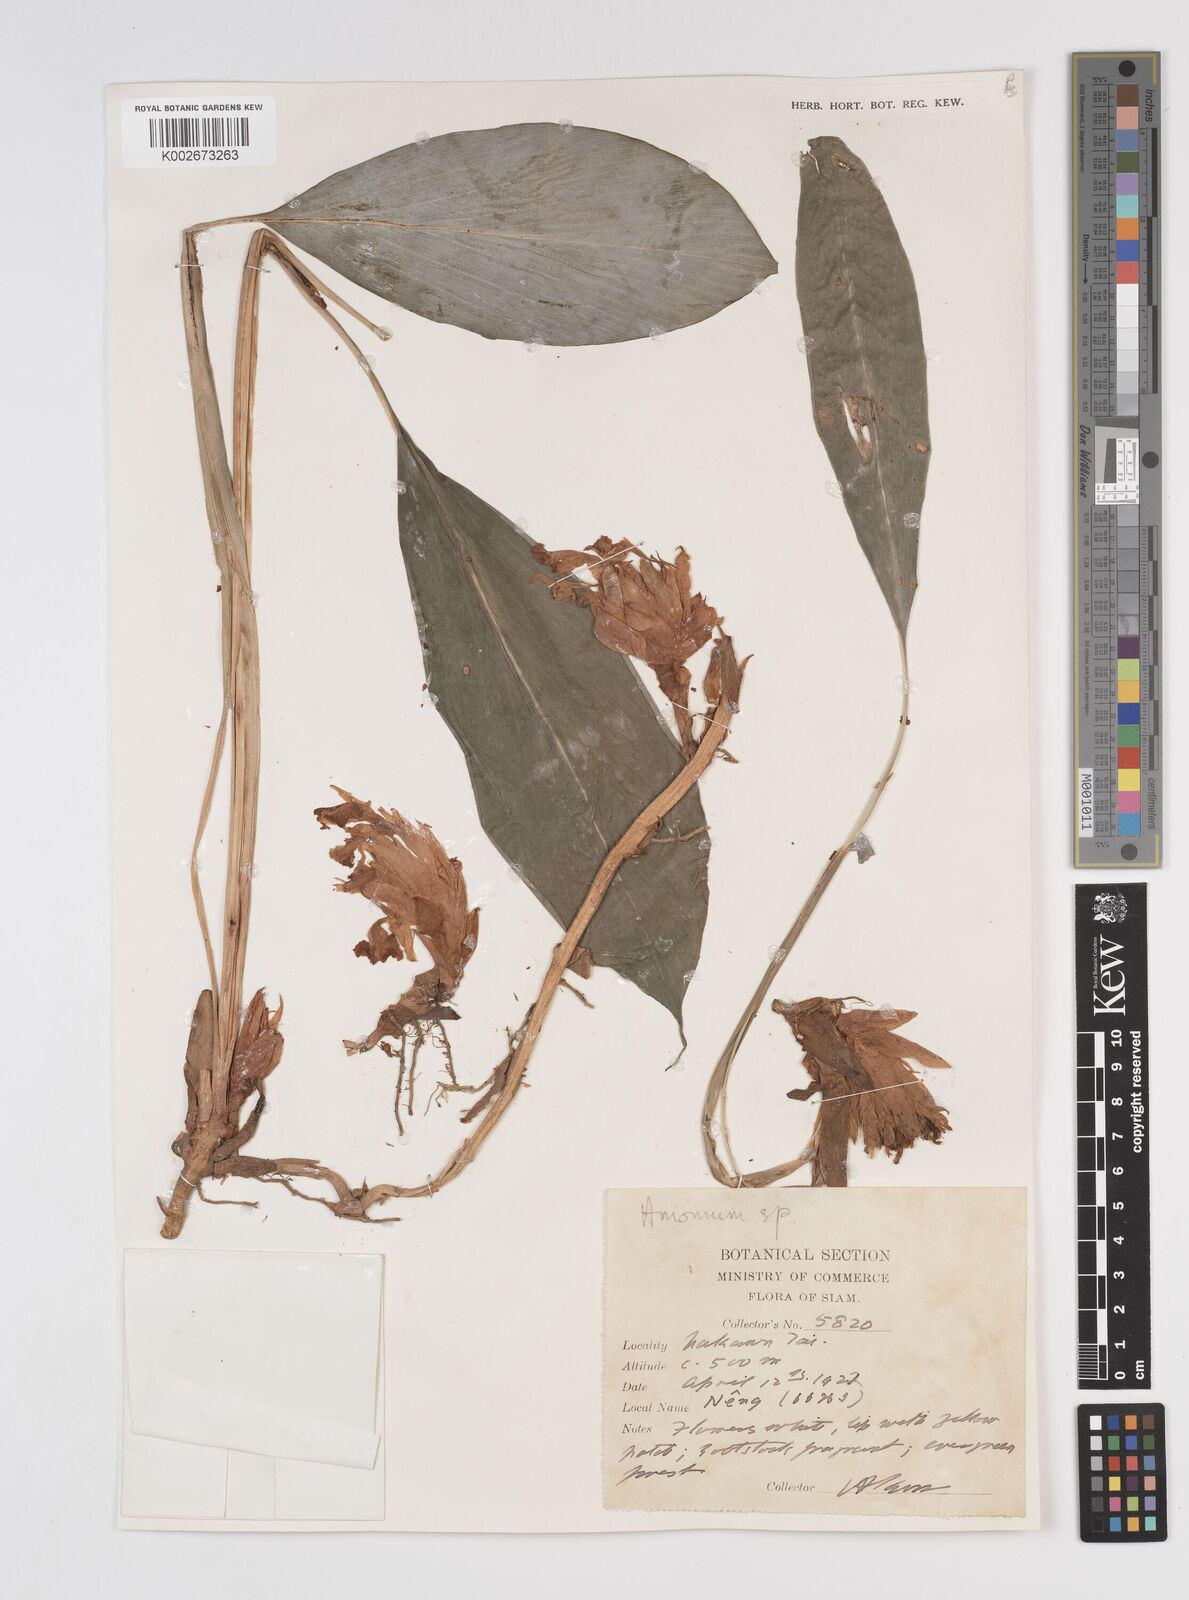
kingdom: Plantae
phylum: Tracheophyta
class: Liliopsida
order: Zingiberales
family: Zingiberaceae
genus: Amomum
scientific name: Amomum
